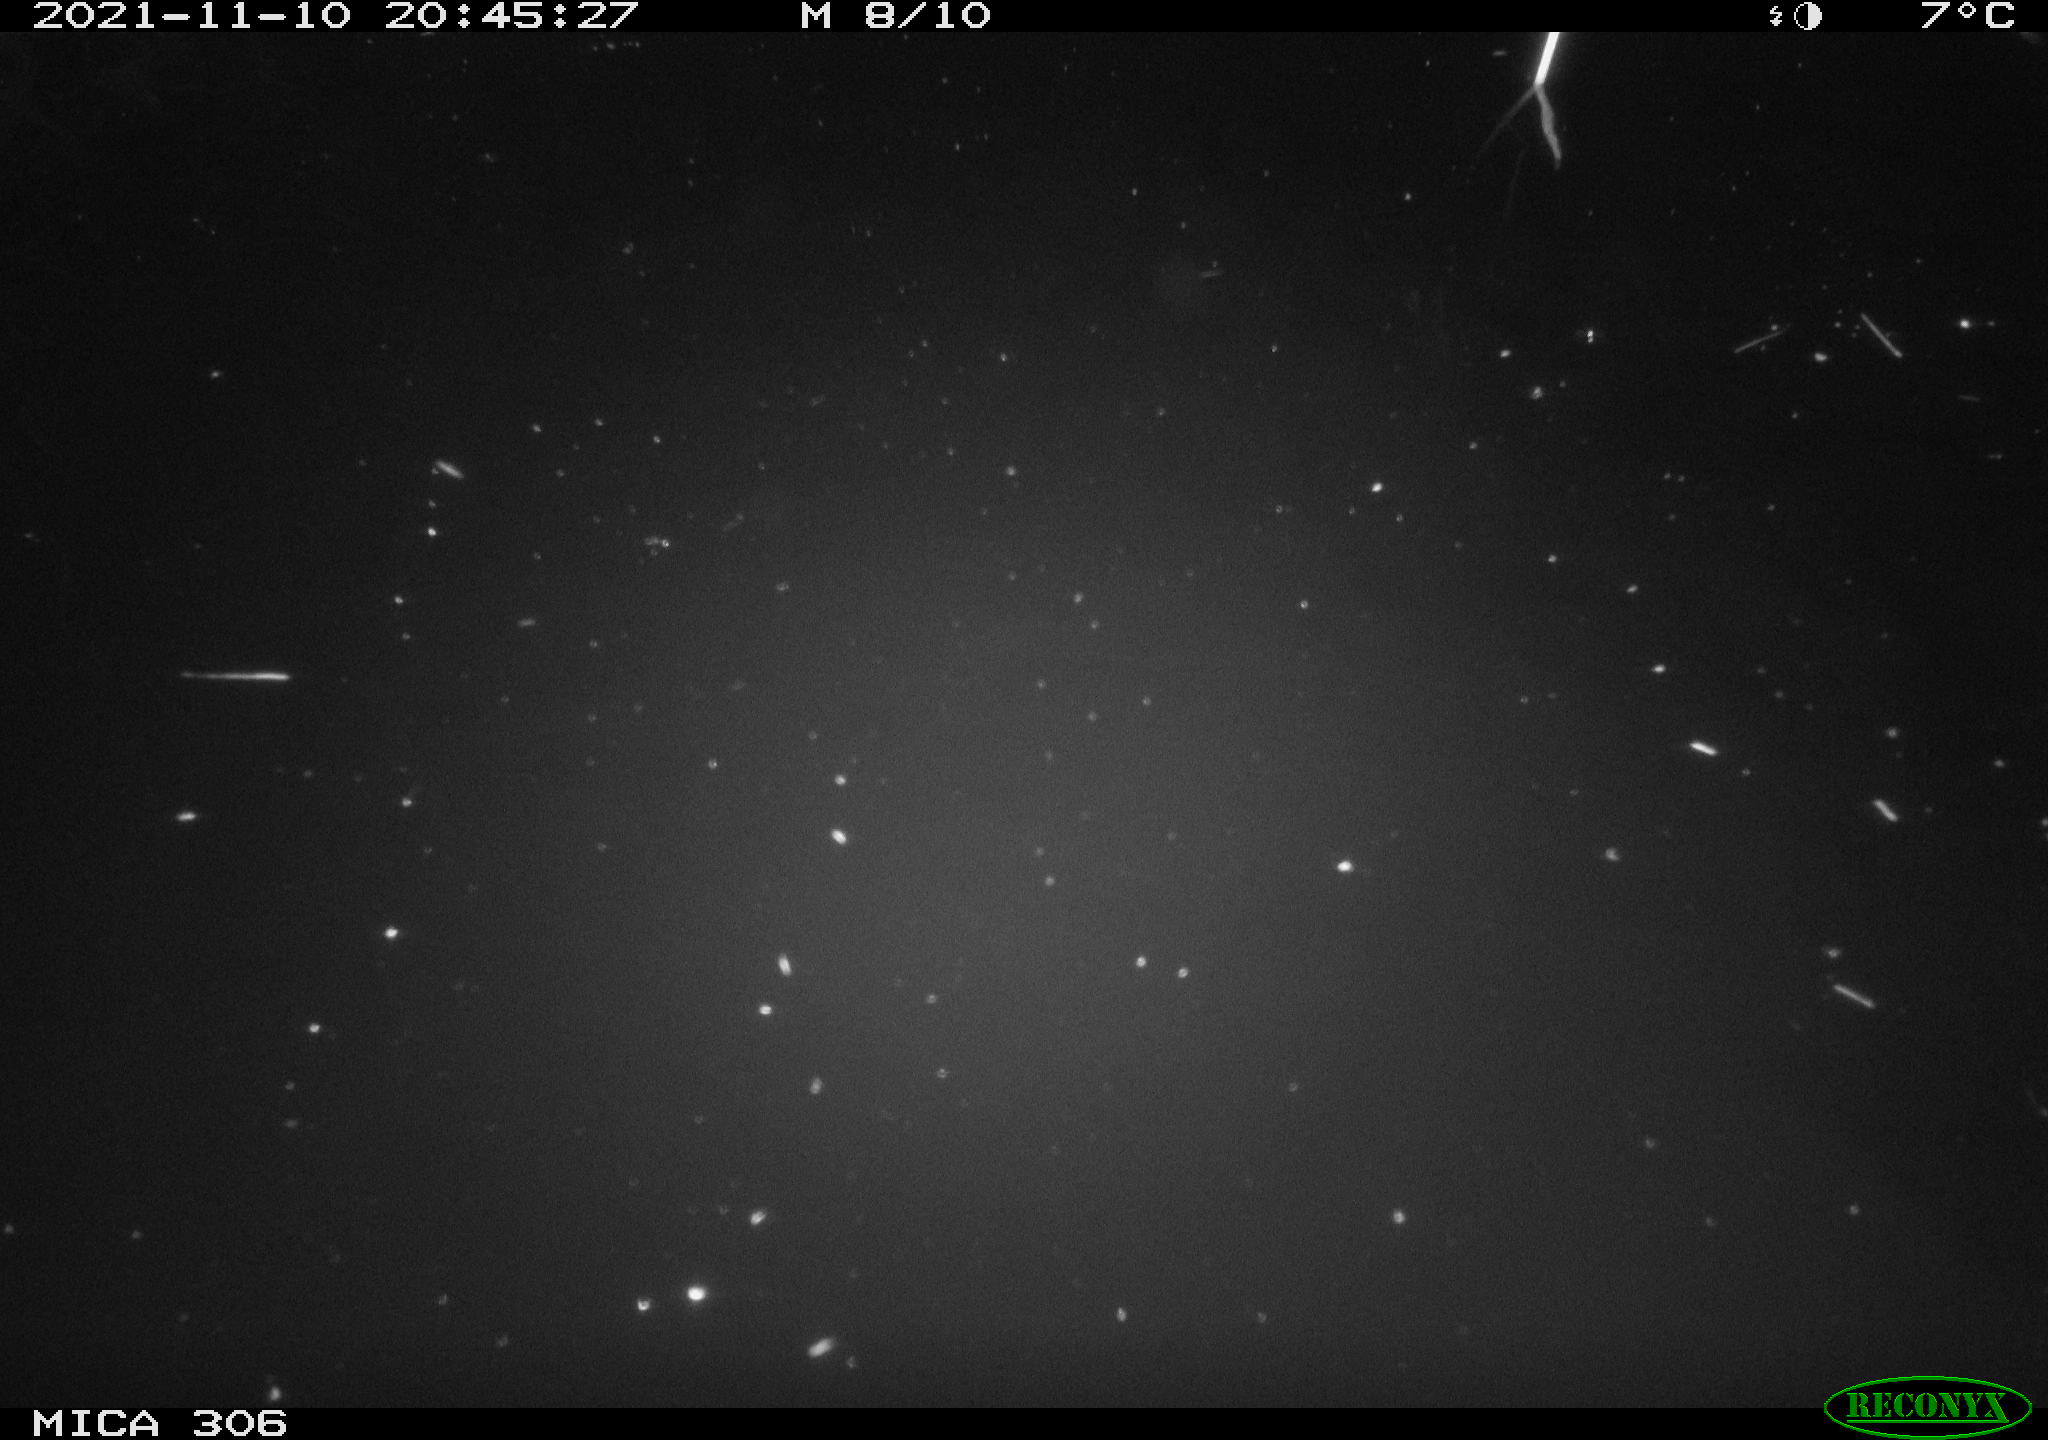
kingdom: Animalia
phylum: Chordata
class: Mammalia
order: Rodentia
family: Cricetidae
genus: Ondatra
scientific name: Ondatra zibethicus
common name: Muskrat
